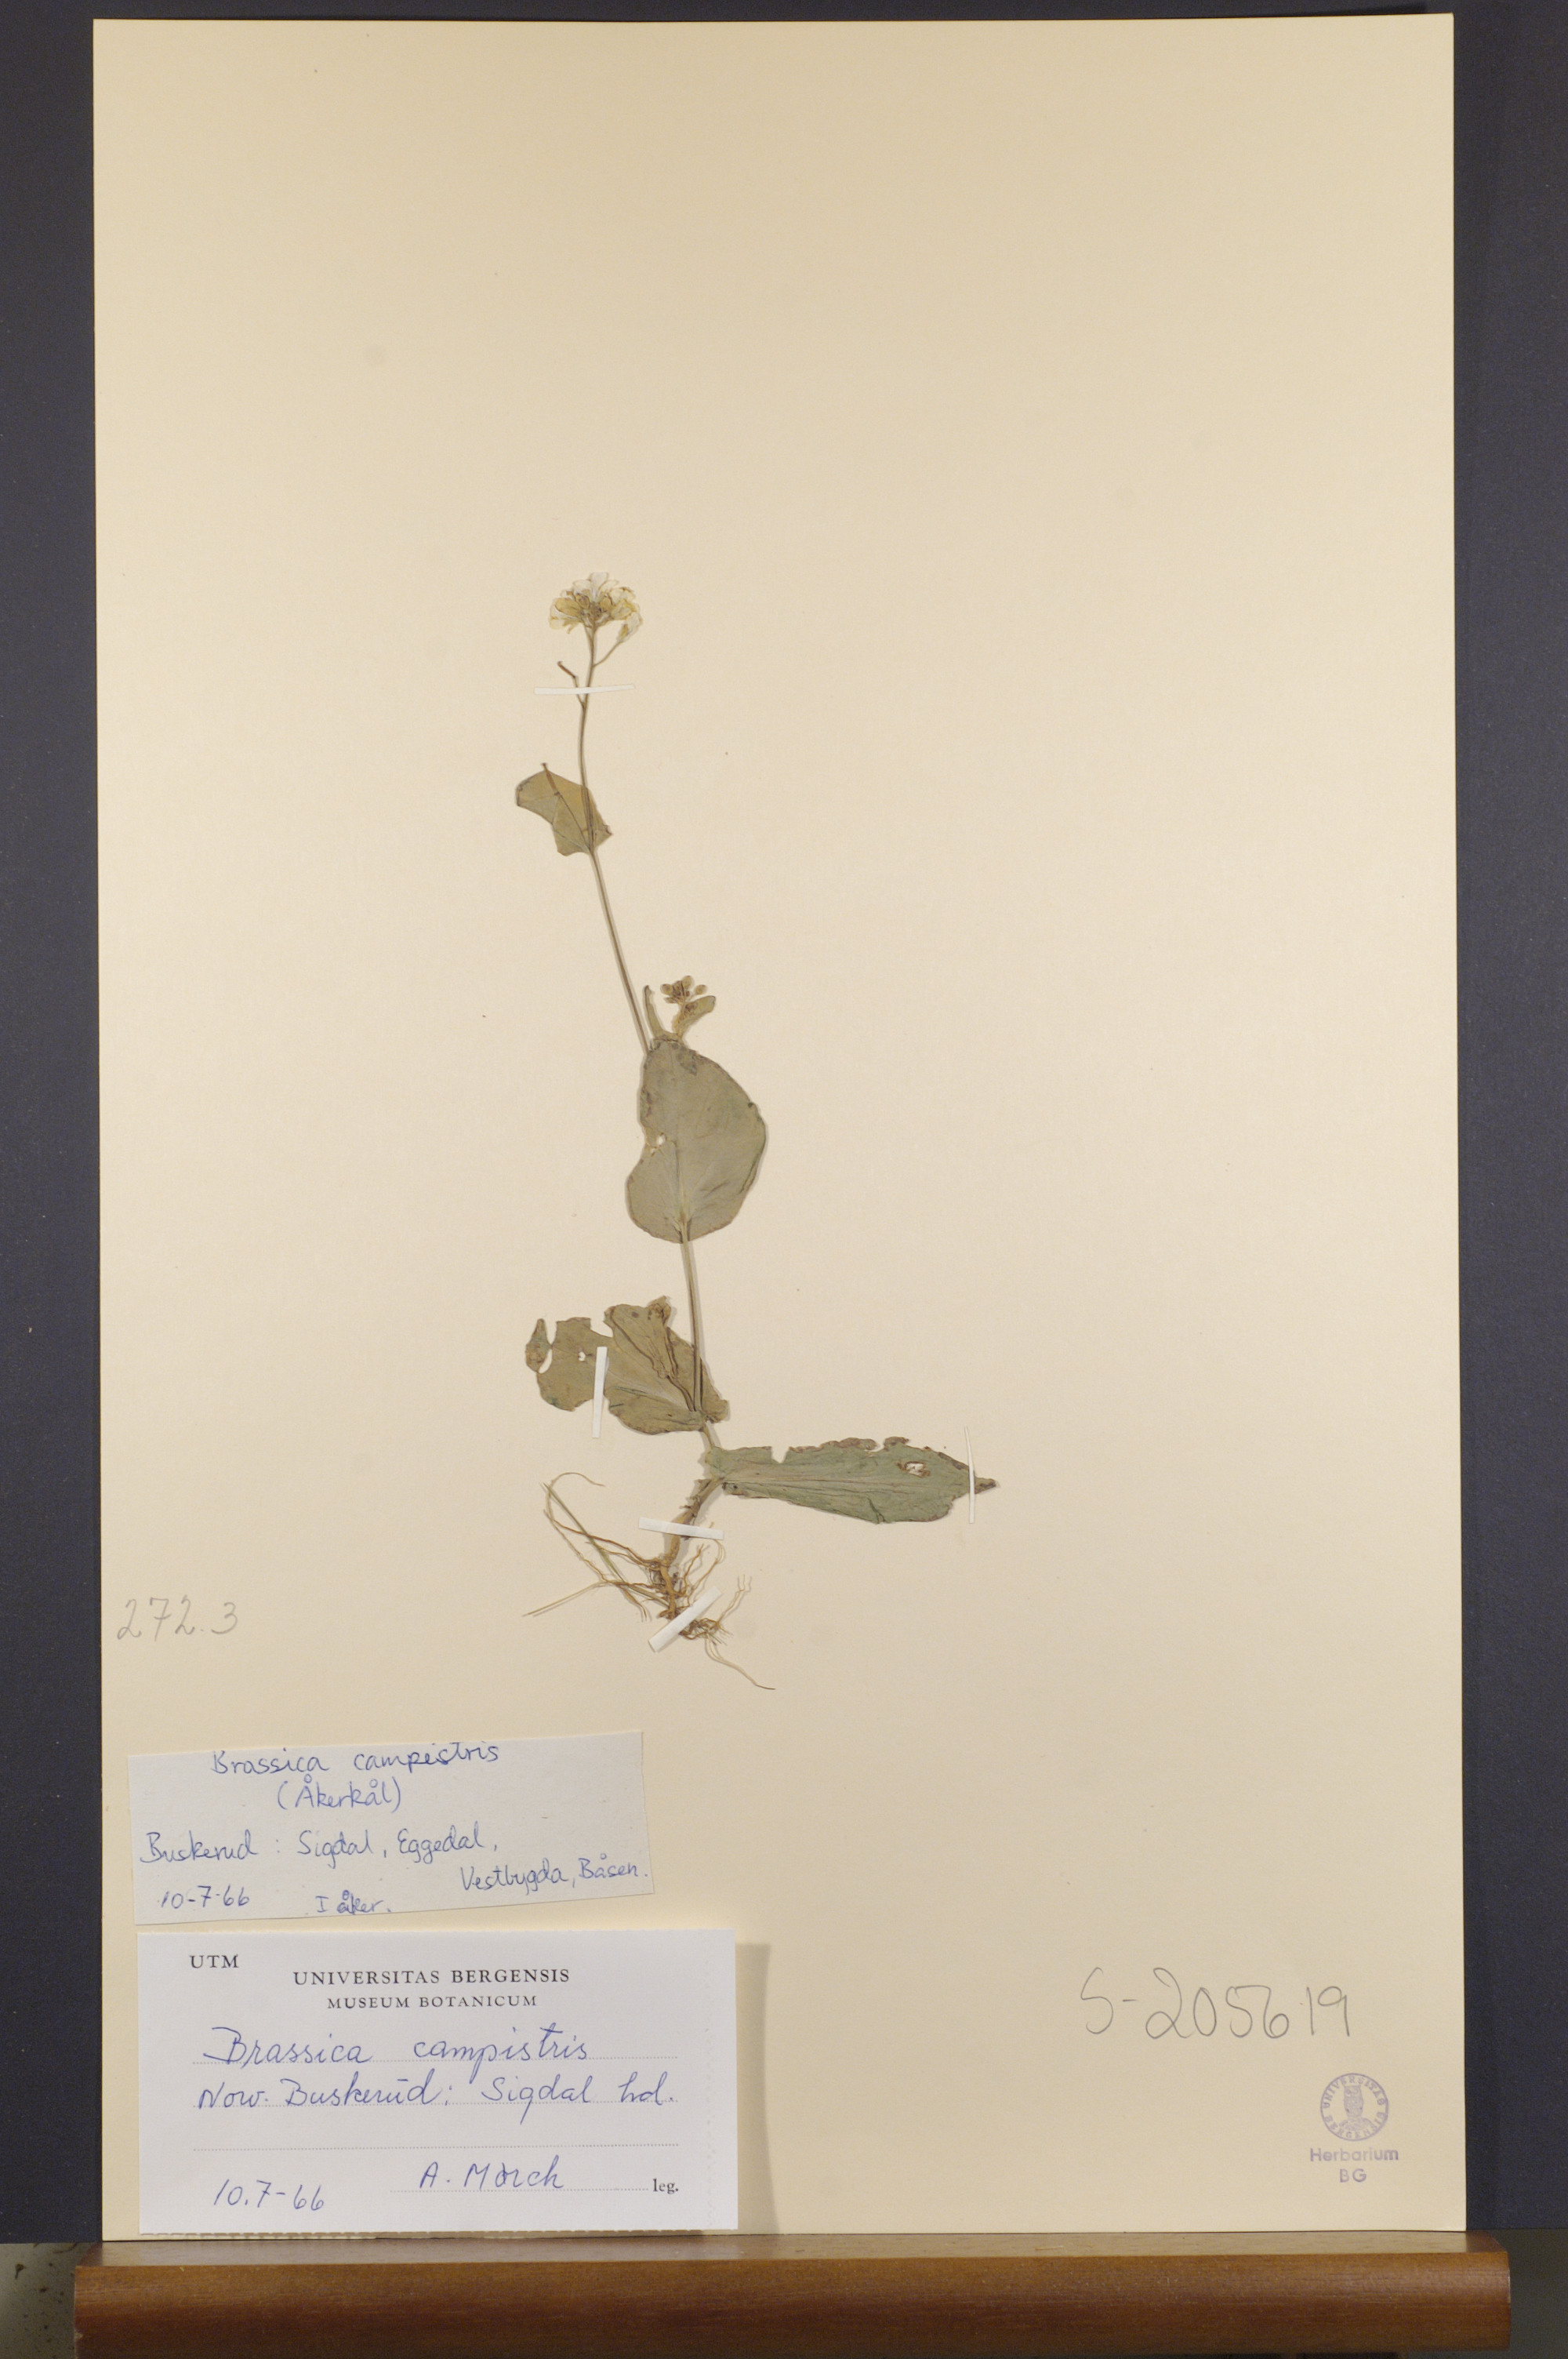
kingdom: Plantae
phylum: Tracheophyta
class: Magnoliopsida
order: Brassicales
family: Brassicaceae
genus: Brassica
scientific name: Brassica rapa
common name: Field mustard
